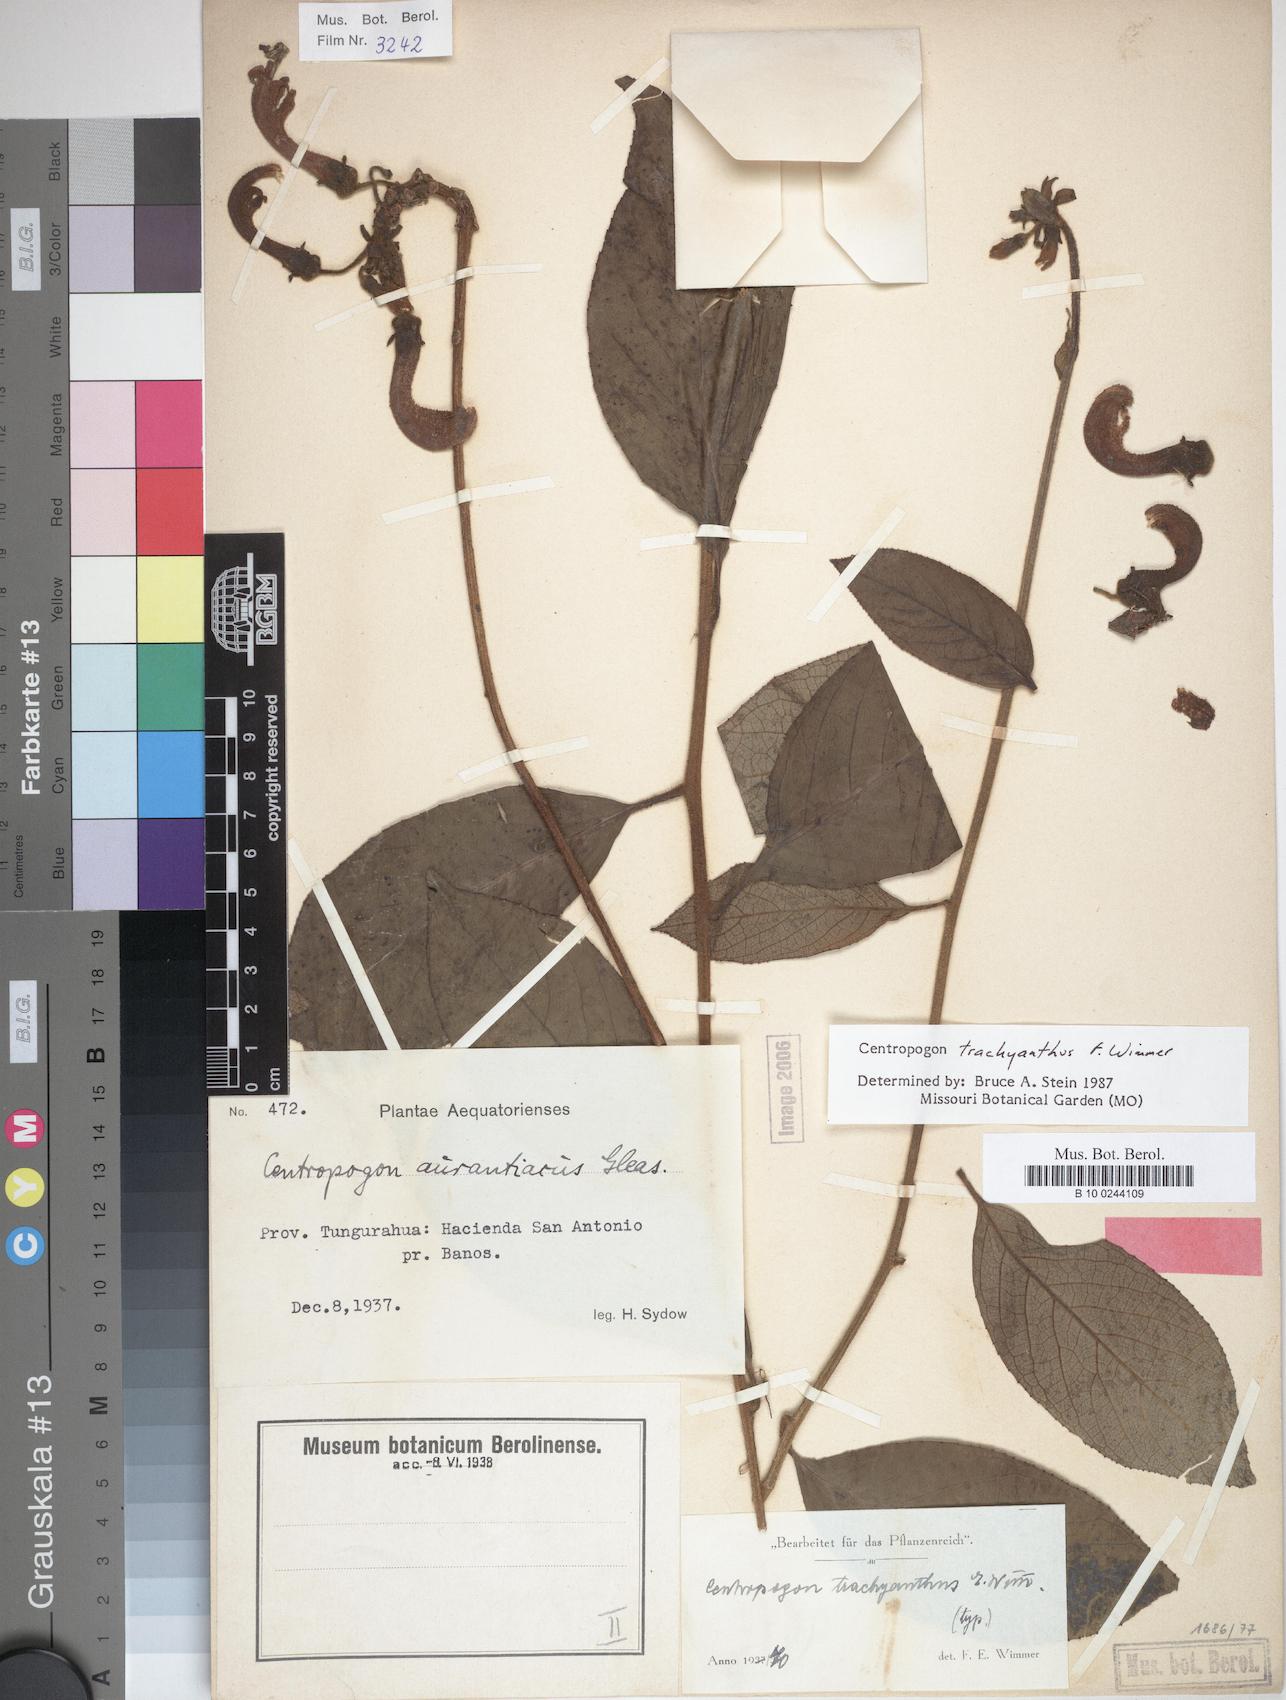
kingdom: Plantae
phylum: Tracheophyta
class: Magnoliopsida
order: Asterales
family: Campanulaceae
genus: Centropogon
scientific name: Centropogon trachyanthus
